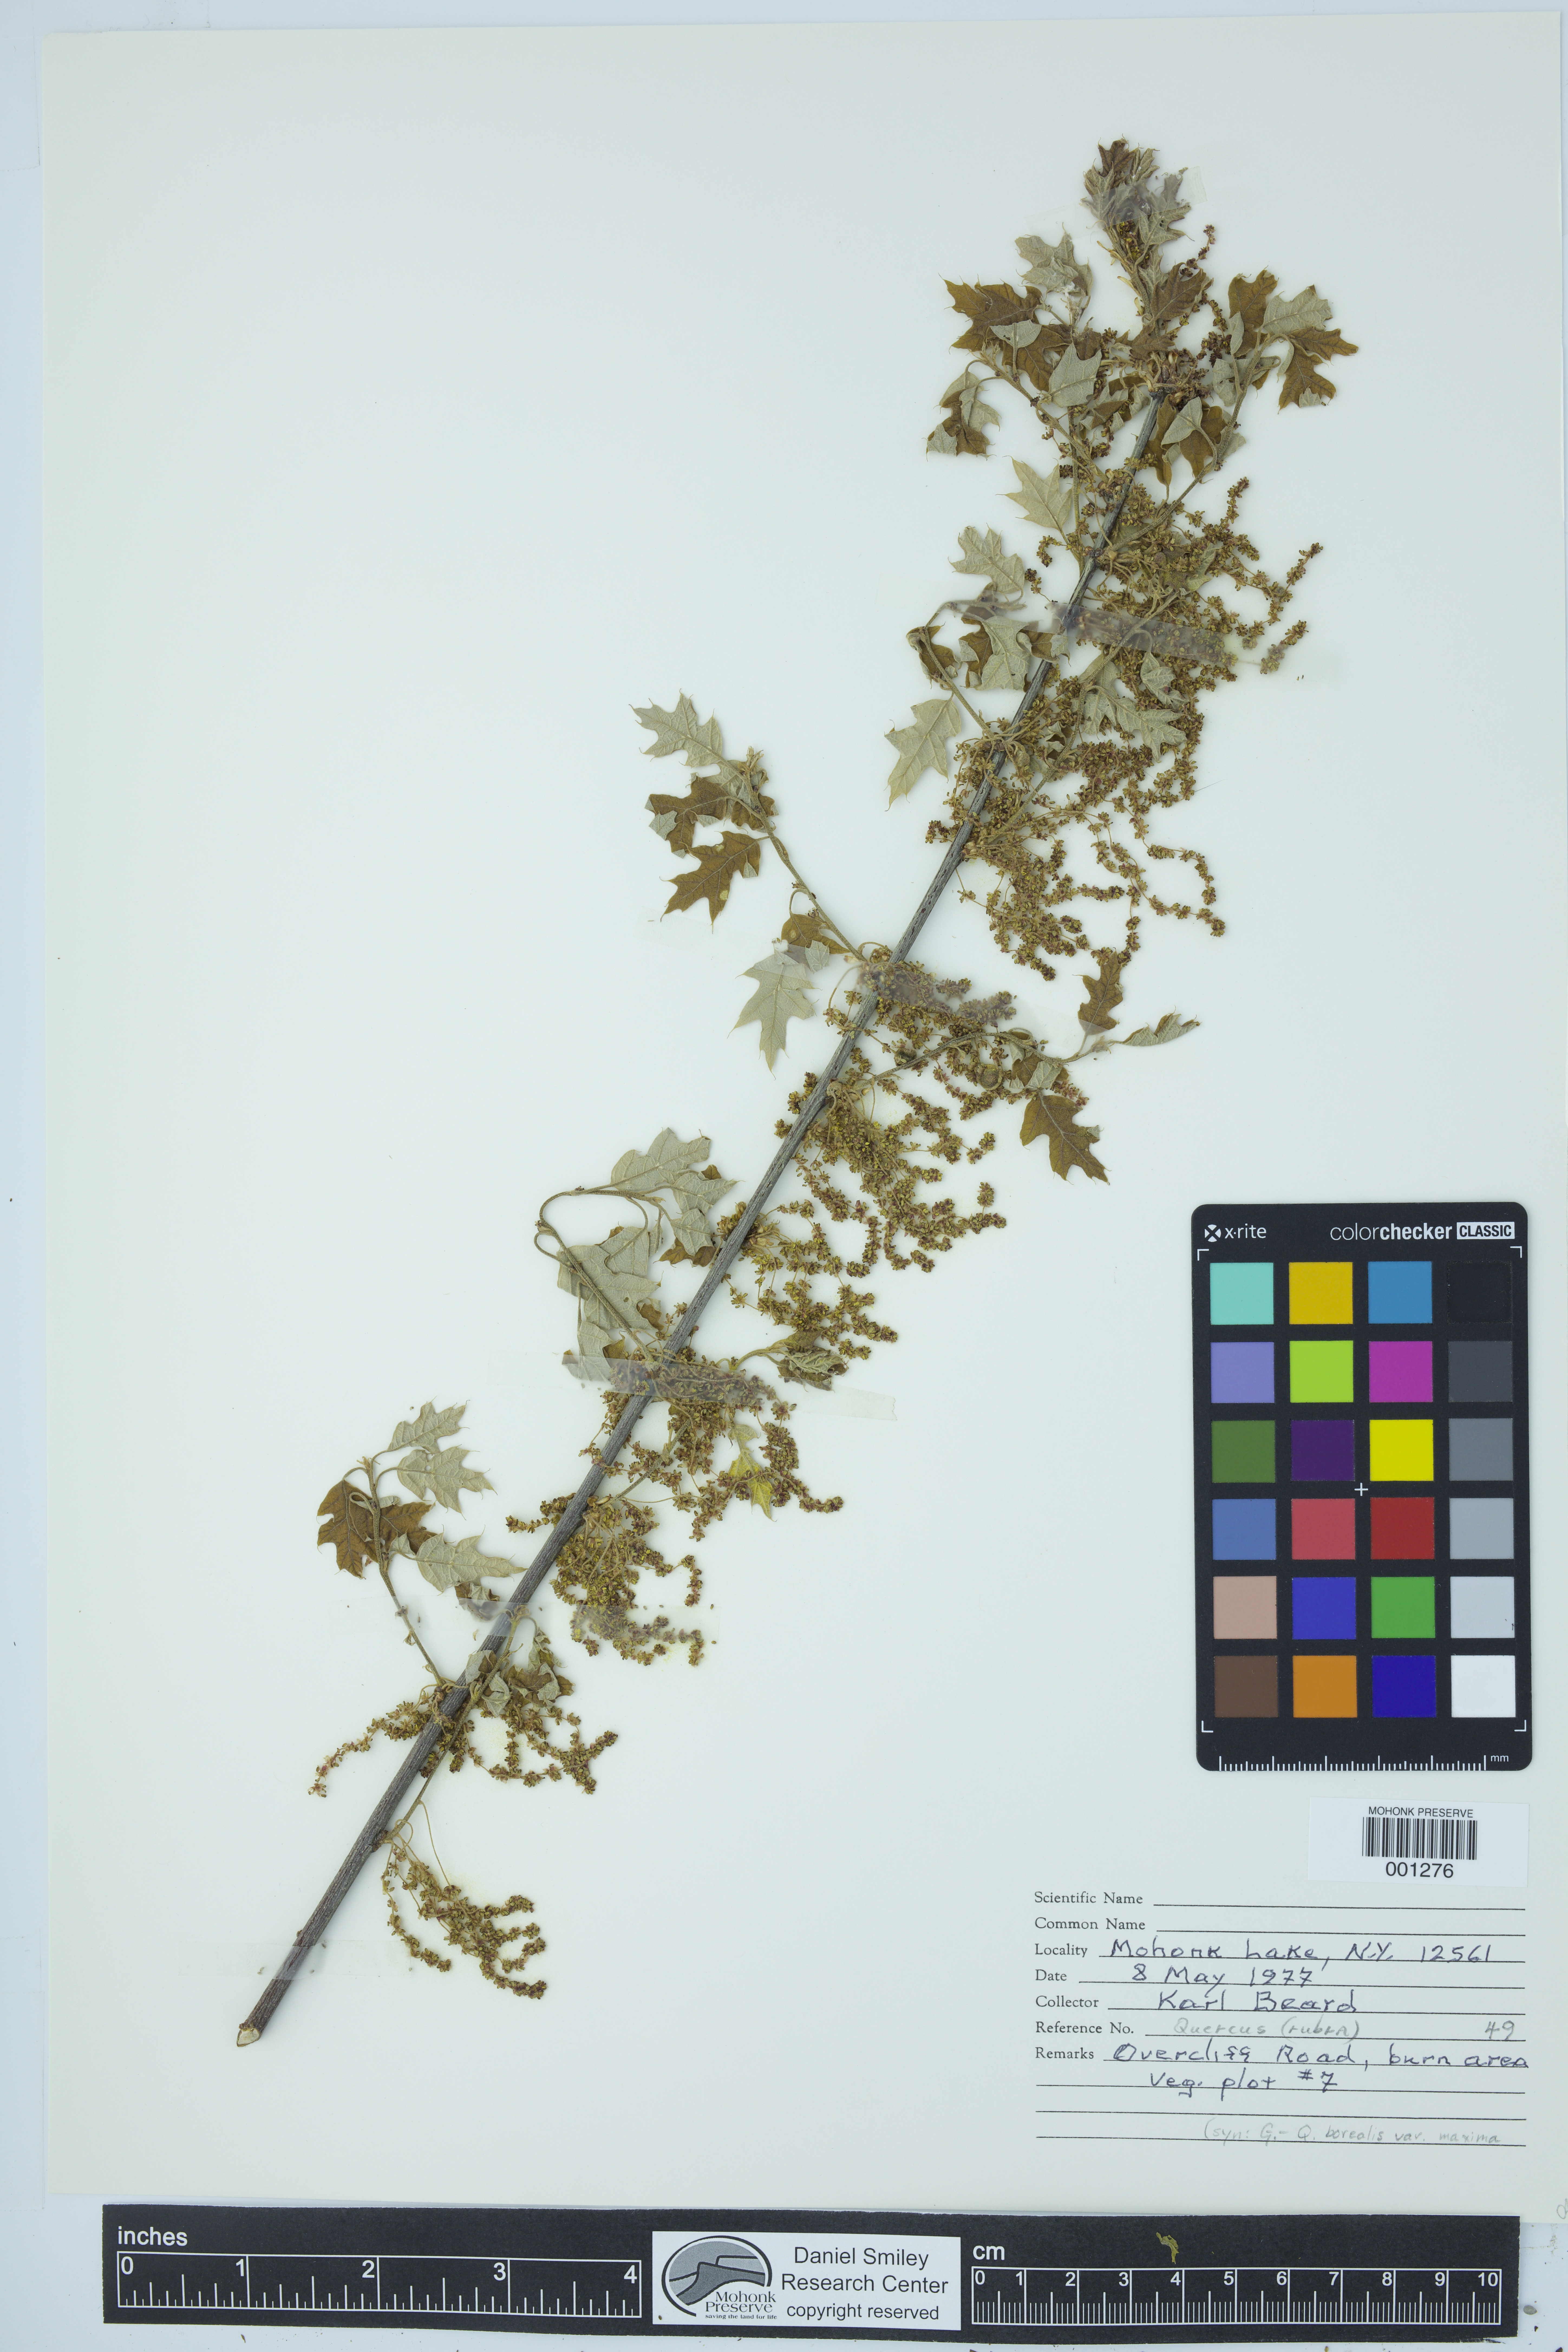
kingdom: Plantae
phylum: Tracheophyta
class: Magnoliopsida
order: Fagales
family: Fagaceae
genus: Quercus
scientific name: Quercus rubra
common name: Red oak
